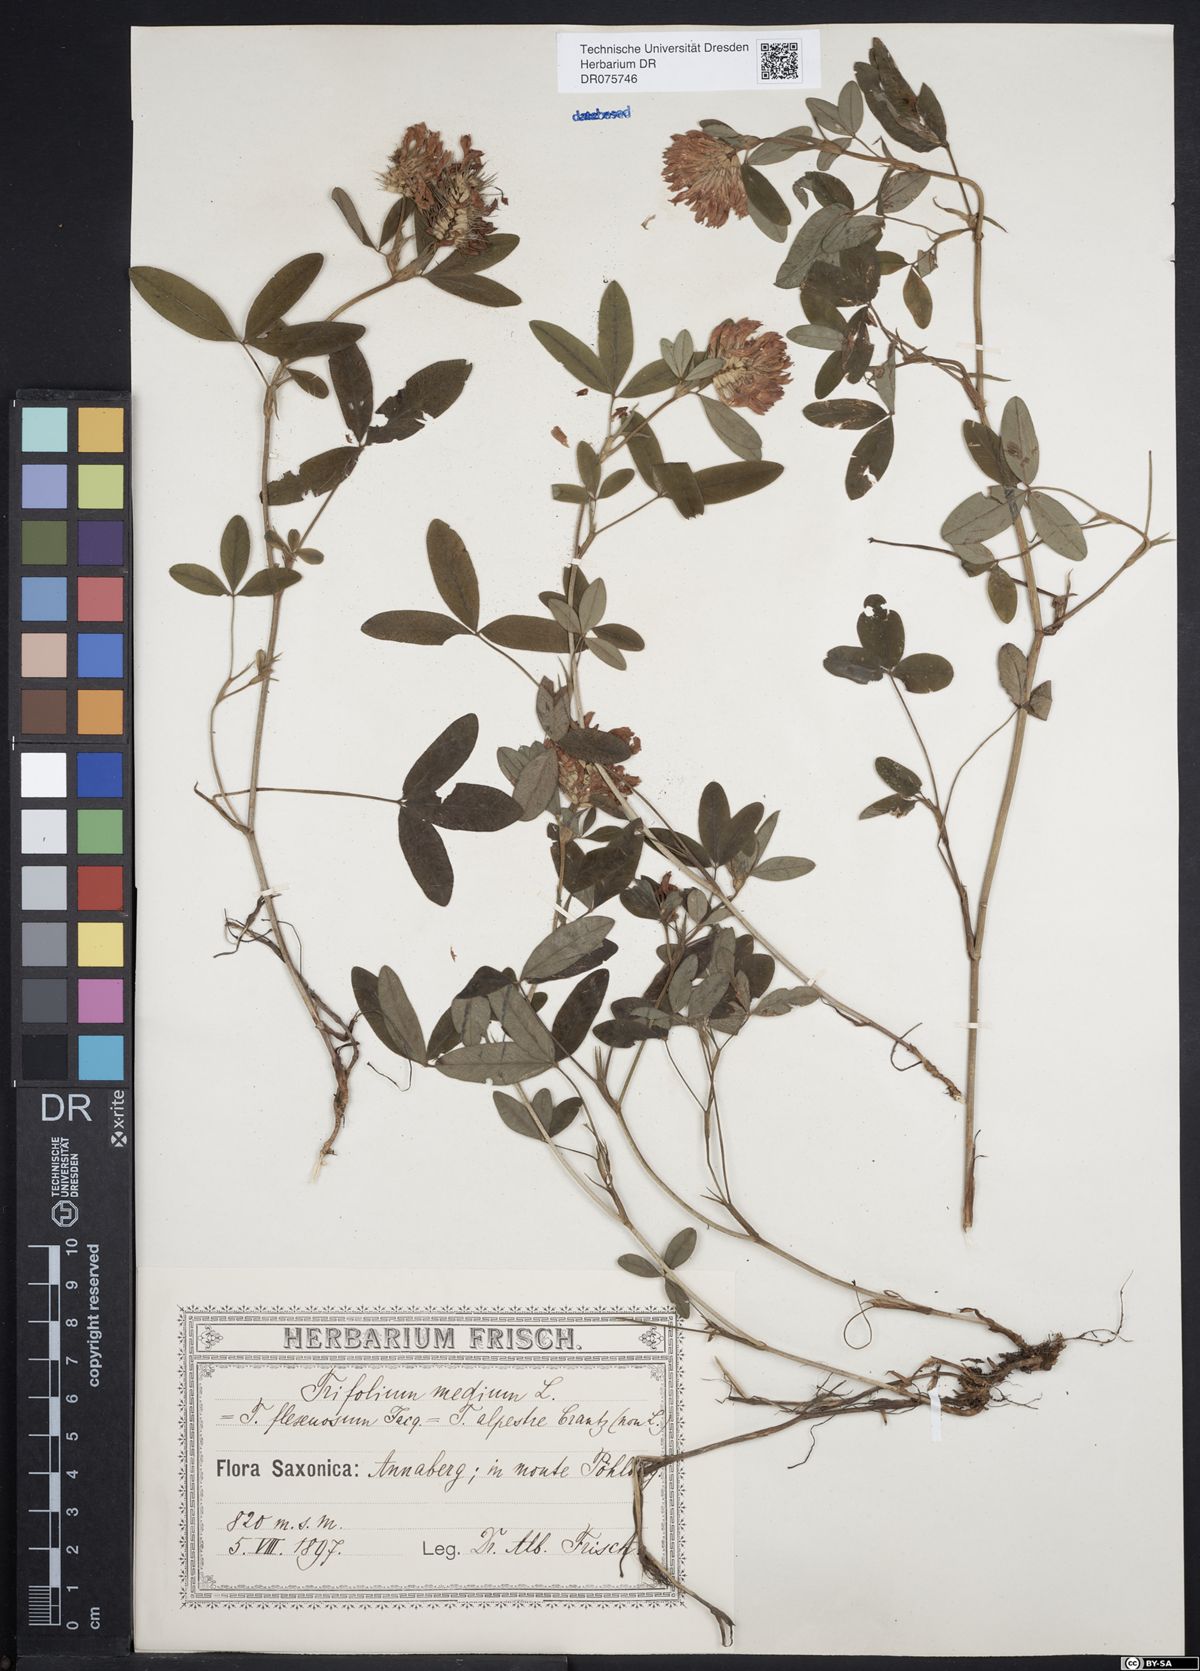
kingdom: Plantae
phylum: Tracheophyta
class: Magnoliopsida
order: Fabales
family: Fabaceae
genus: Trifolium
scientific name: Trifolium medium
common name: Zigzag clover
